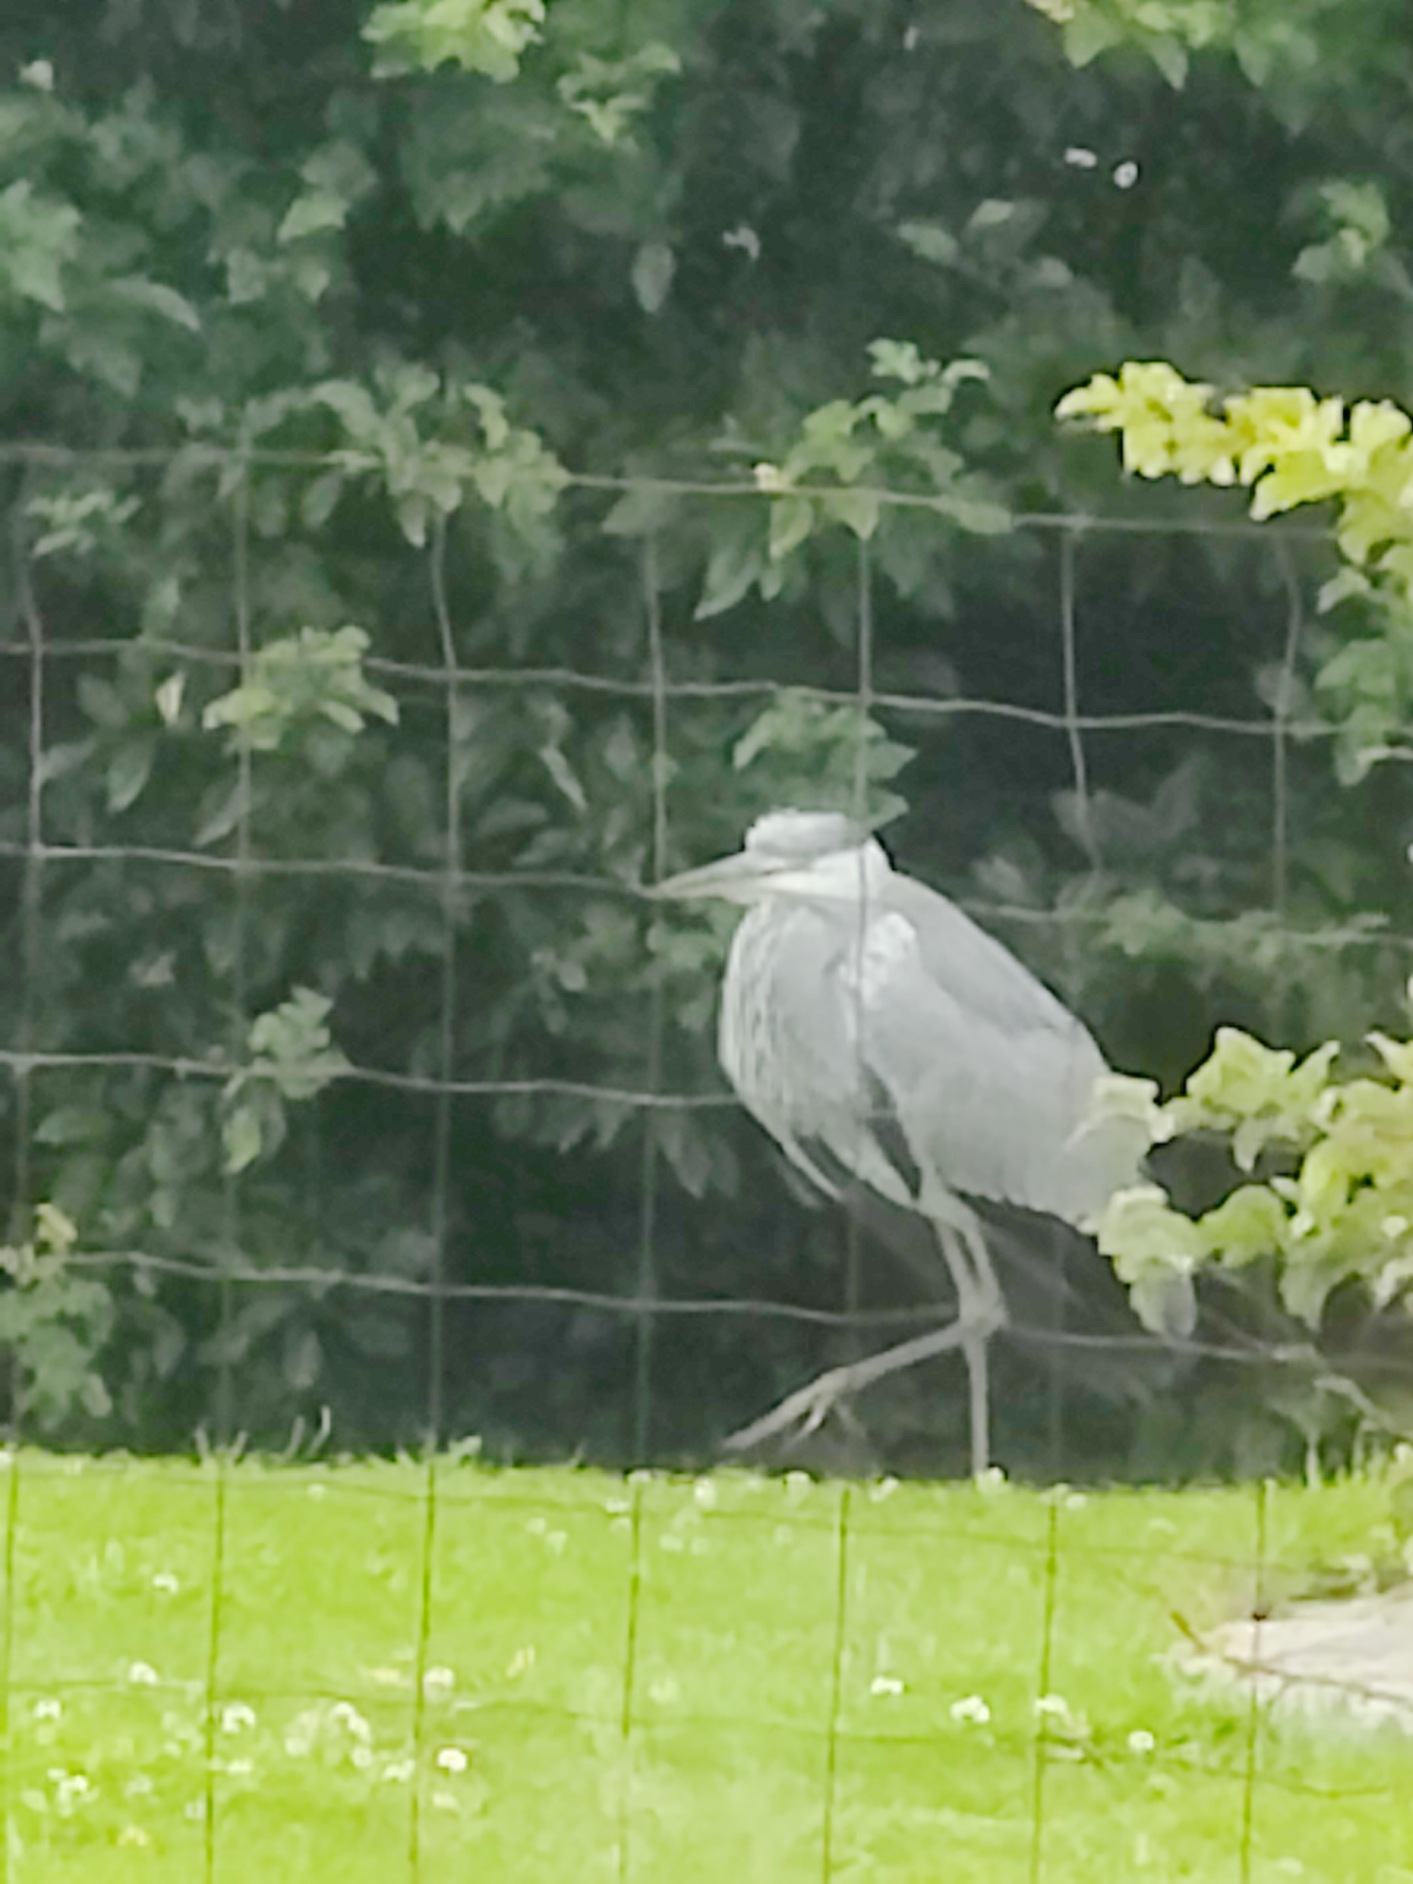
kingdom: Animalia
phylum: Chordata
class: Aves
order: Pelecaniformes
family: Ardeidae
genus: Ardea
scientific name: Ardea cinerea
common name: Fiskehejre
